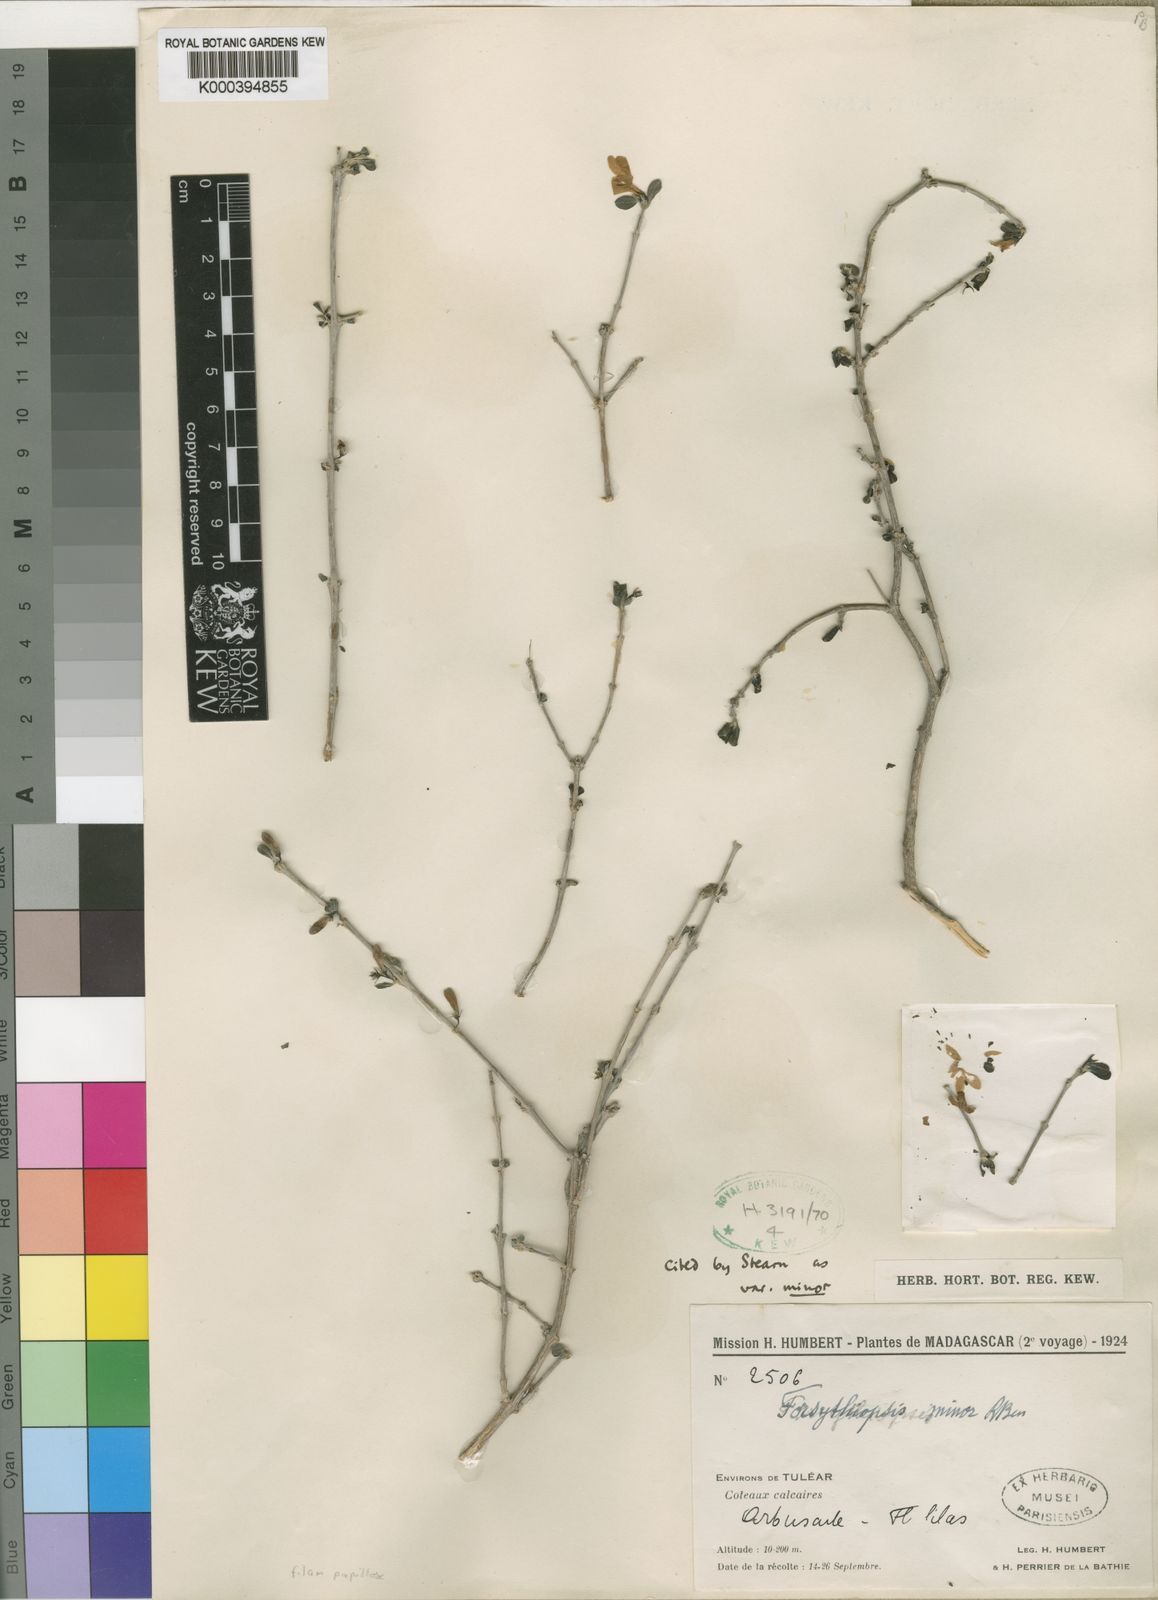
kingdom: Plantae
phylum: Tracheophyta
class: Magnoliopsida
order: Lamiales
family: Acanthaceae
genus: Oplonia
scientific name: Oplonia minor
